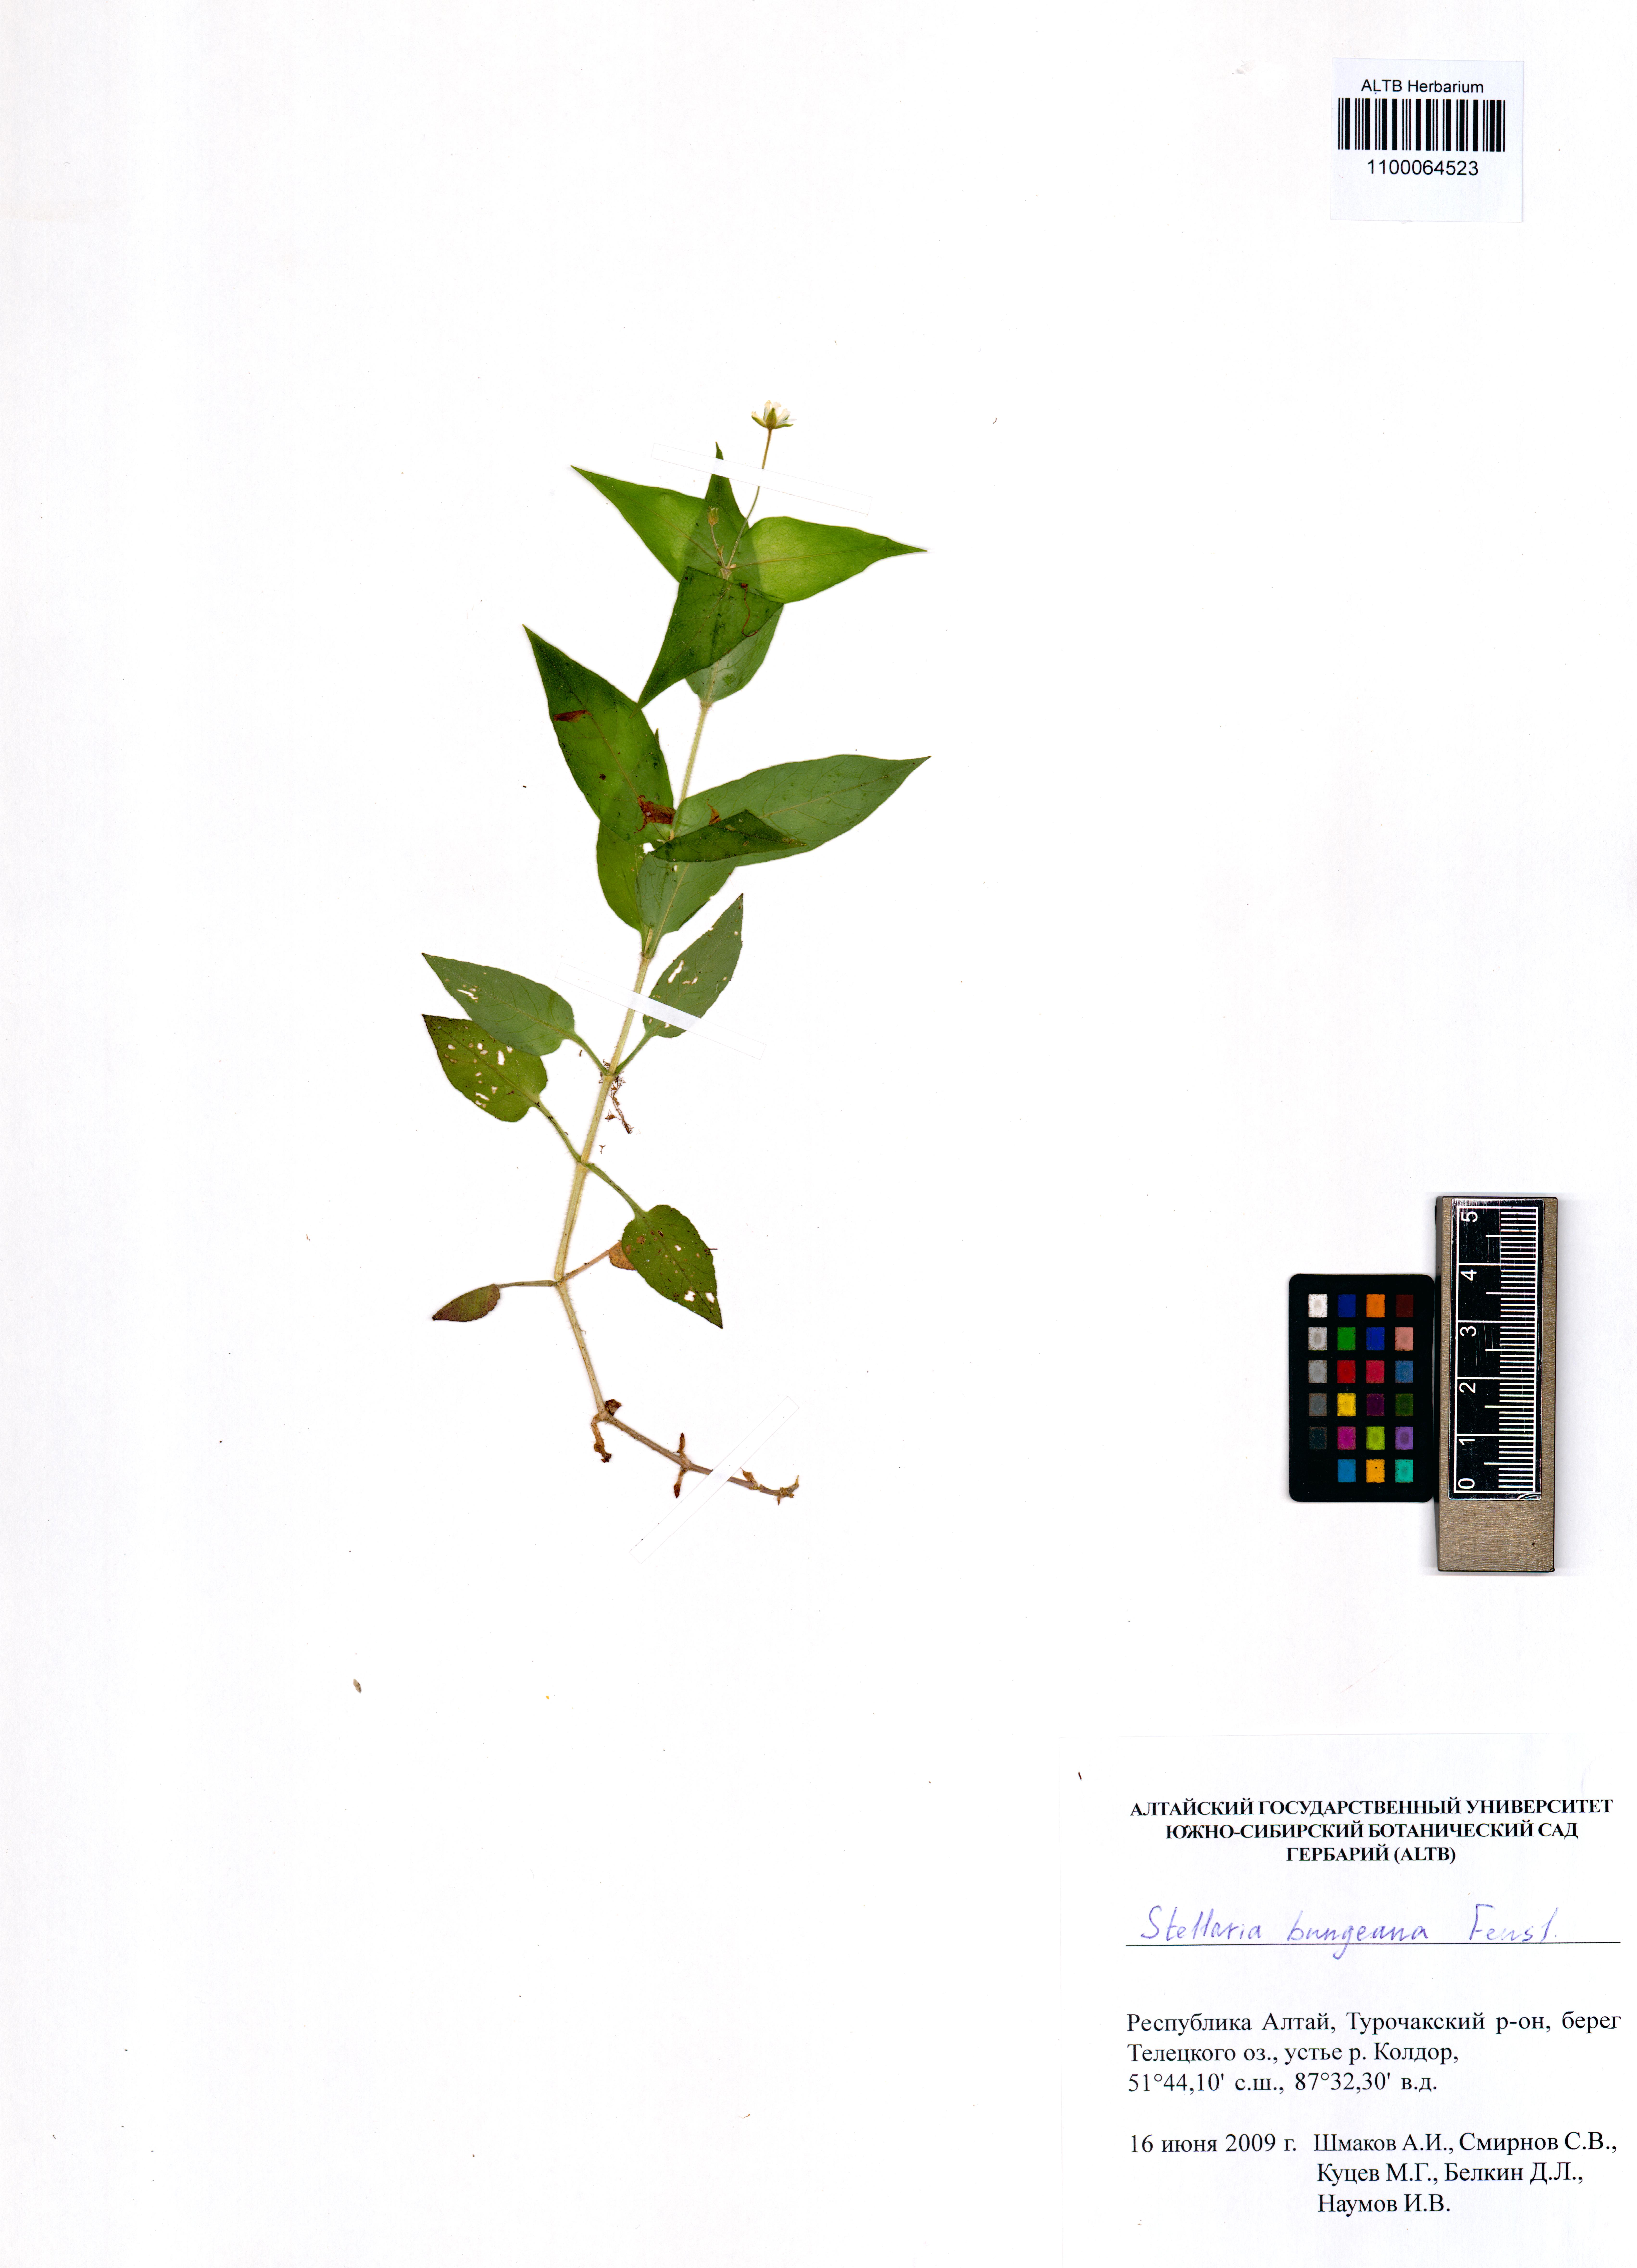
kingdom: Plantae
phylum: Tracheophyta
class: Magnoliopsida
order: Caryophyllales
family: Caryophyllaceae
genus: Stellaria
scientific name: Stellaria bungeana
